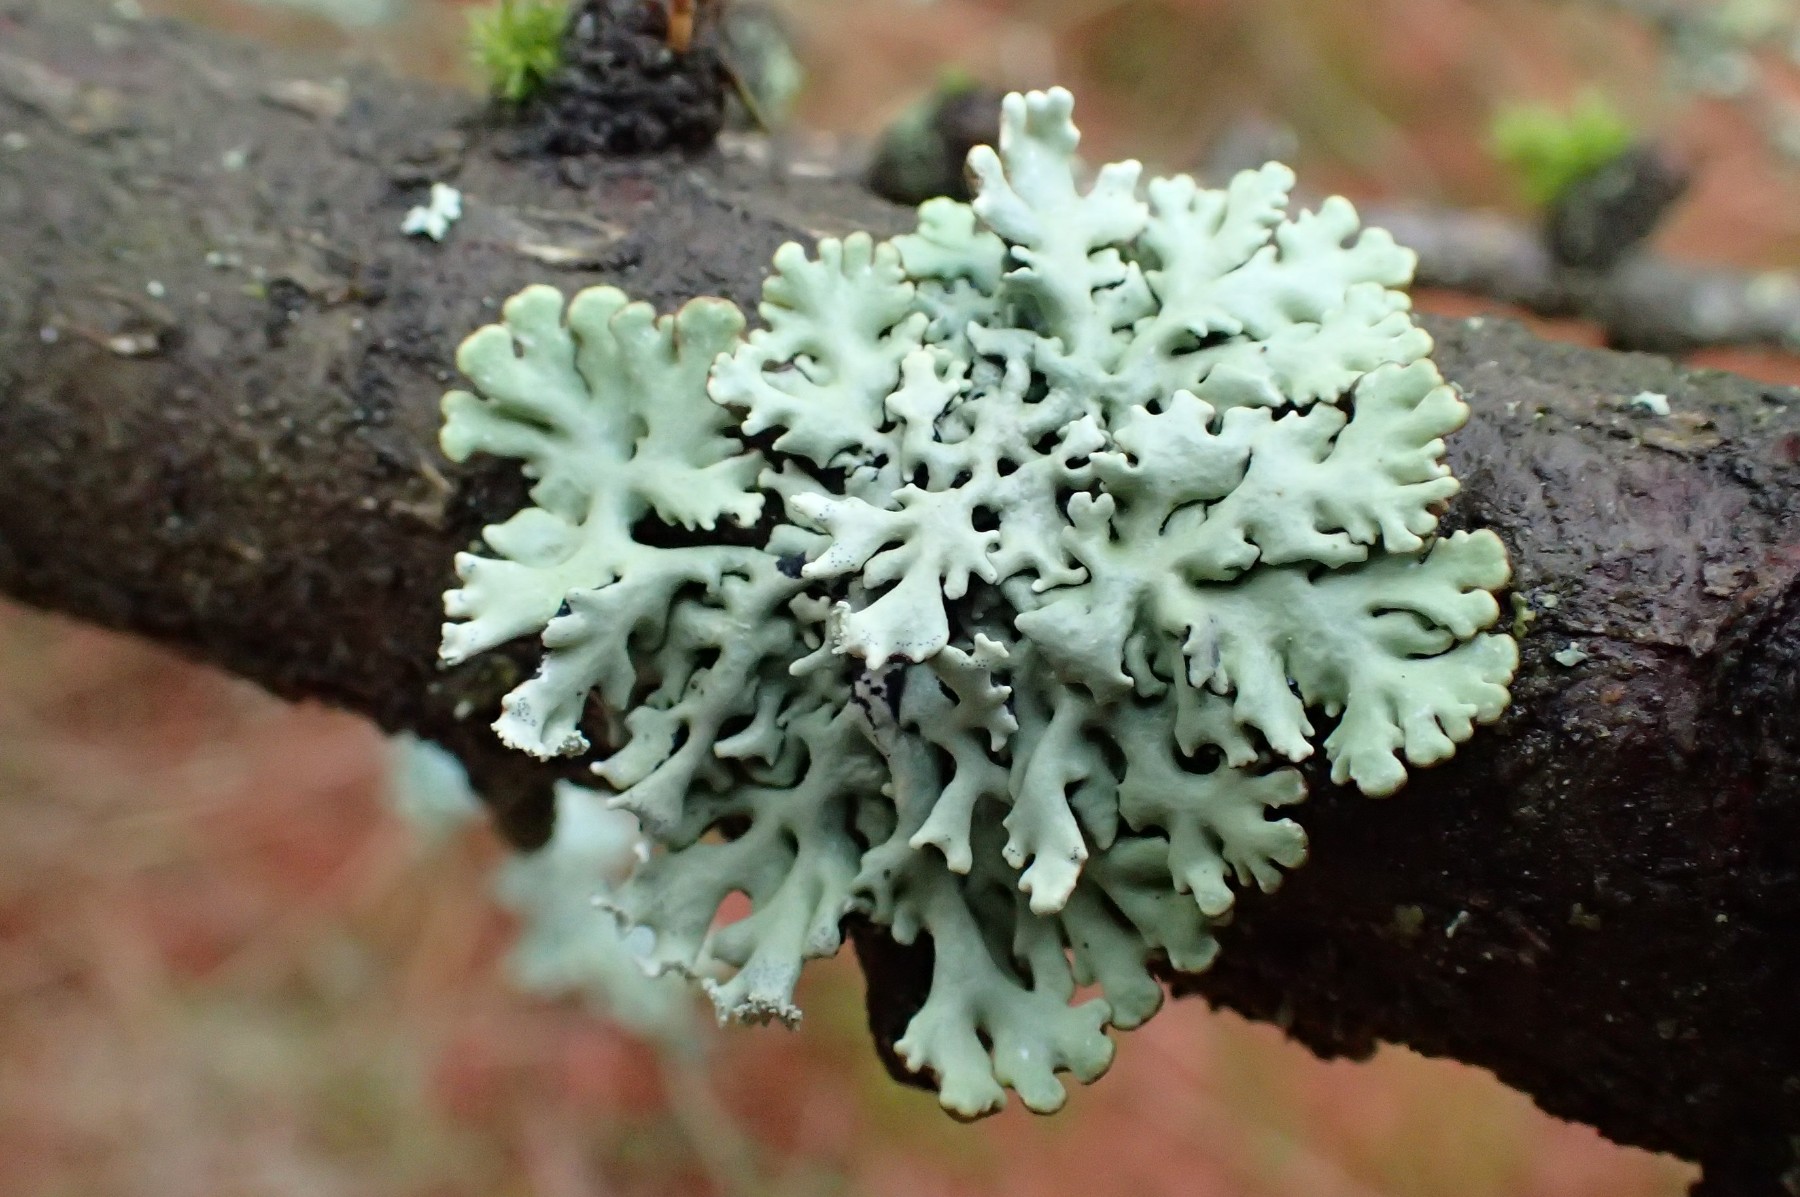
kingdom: Fungi
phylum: Ascomycota
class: Lecanoromycetes
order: Lecanorales
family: Parmeliaceae
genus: Hypogymnia
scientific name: Hypogymnia physodes
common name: almindelig kvistlav
